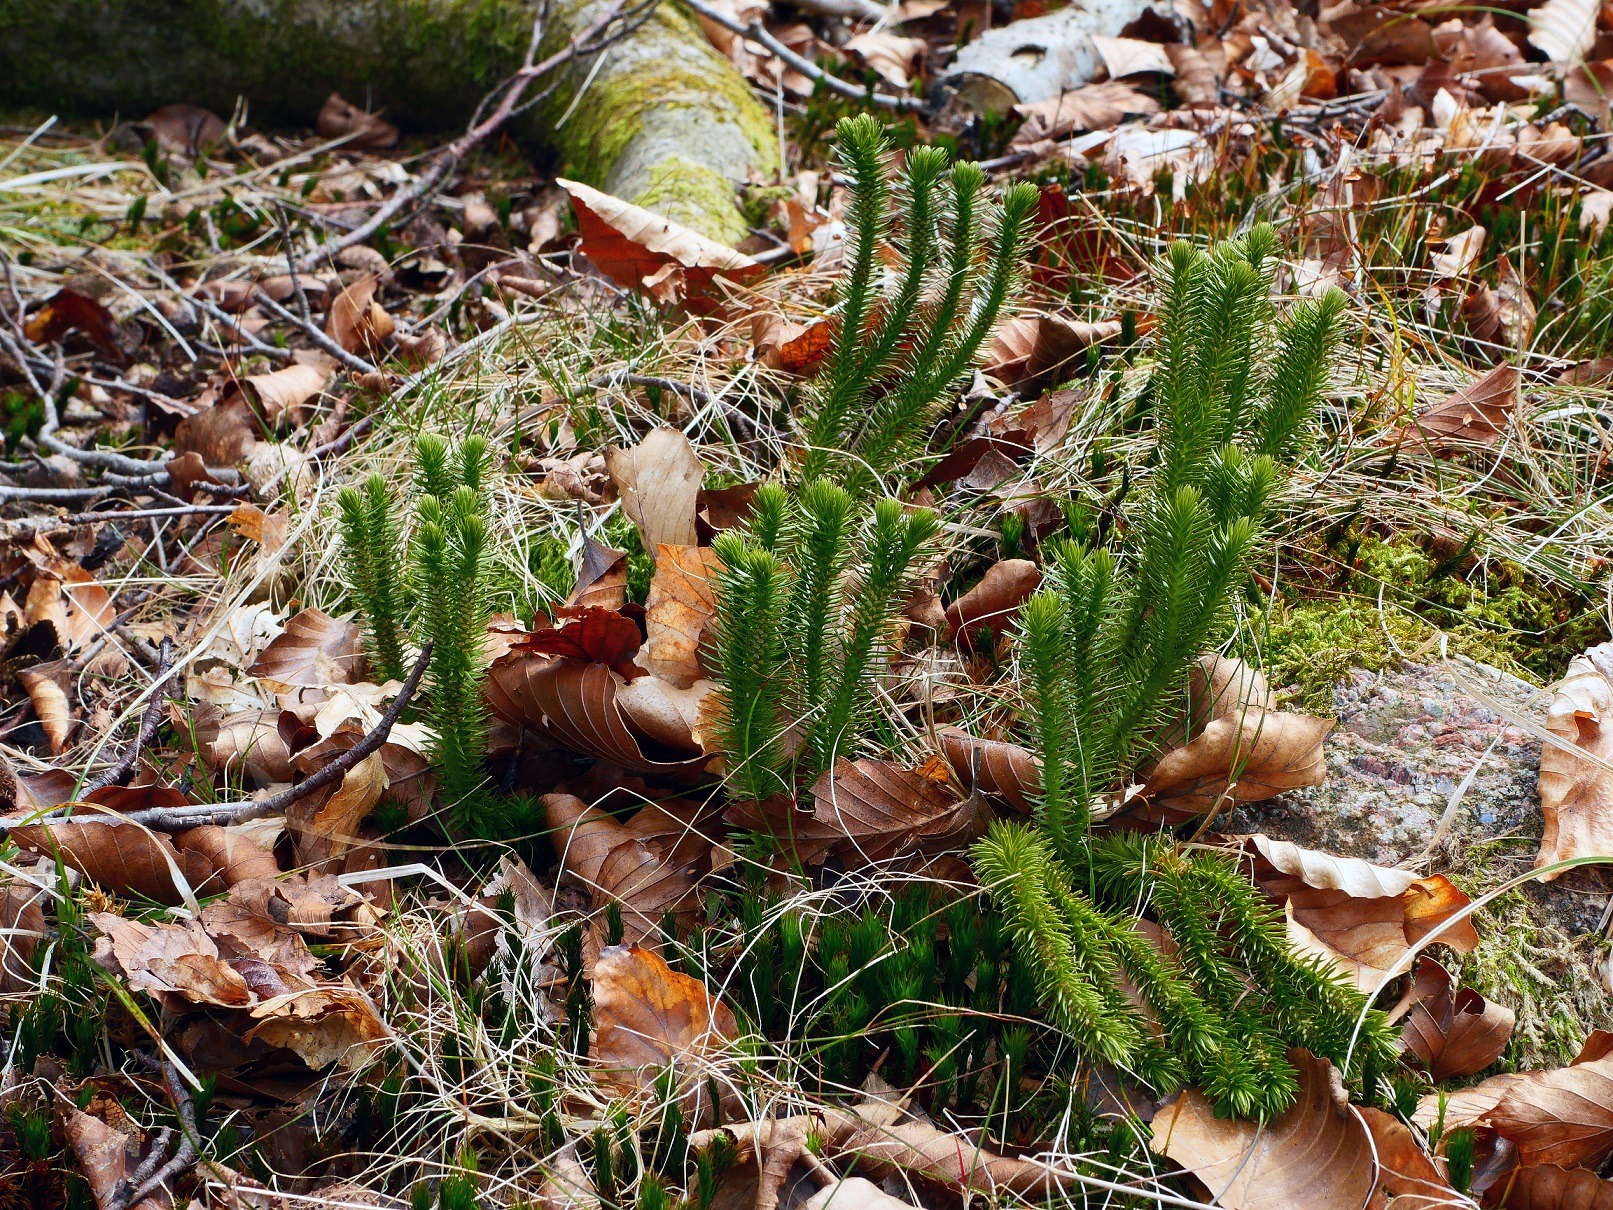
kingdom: Plantae
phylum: Tracheophyta
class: Lycopodiopsida
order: Lycopodiales
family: Lycopodiaceae
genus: Huperzia
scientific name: Huperzia selago
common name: Otteradet ulvefod
